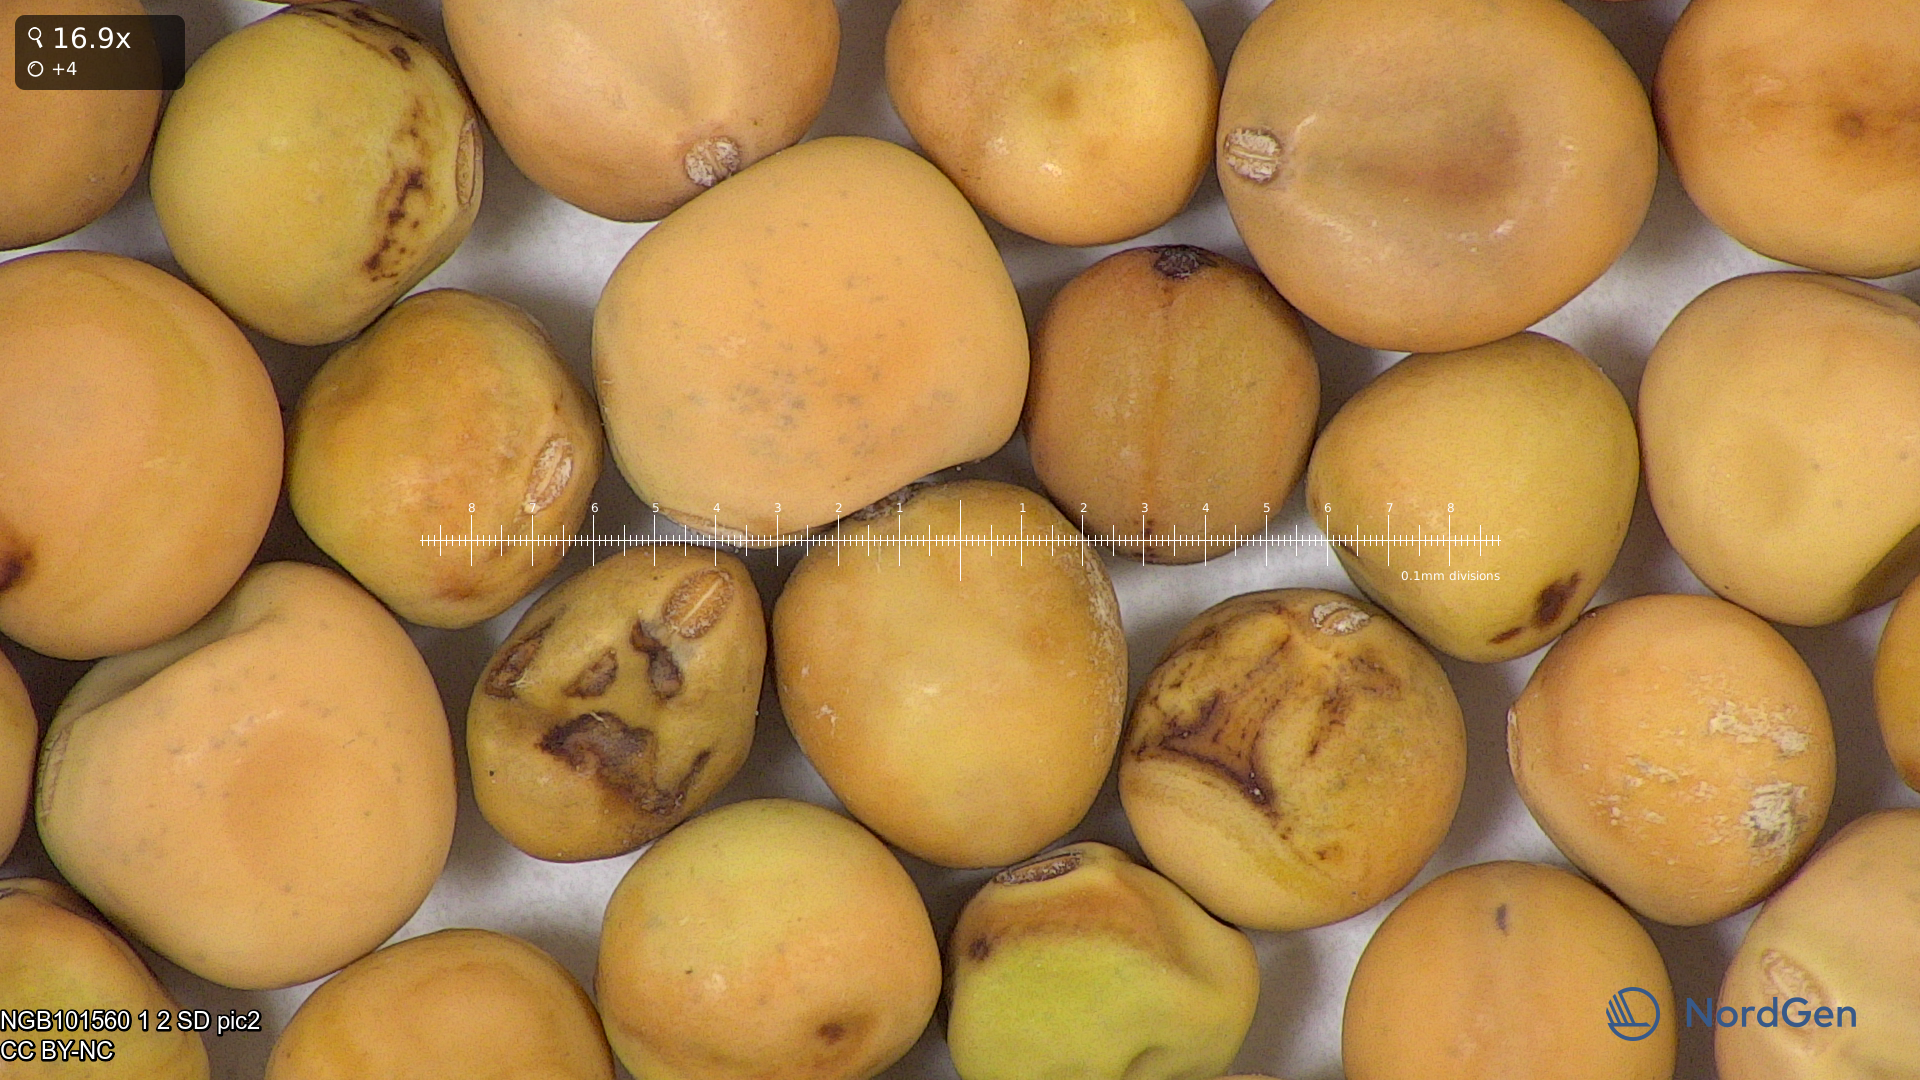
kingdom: Plantae
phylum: Tracheophyta
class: Magnoliopsida
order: Fabales
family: Fabaceae
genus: Lathyrus
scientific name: Lathyrus oleraceus
